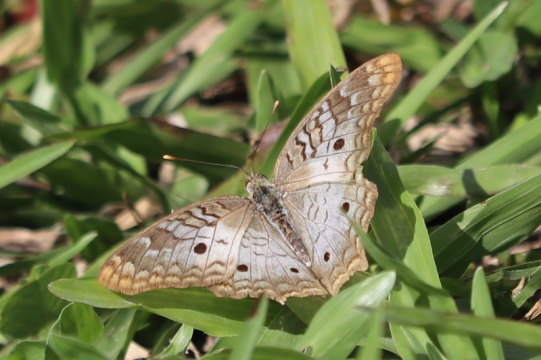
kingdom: Animalia
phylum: Arthropoda
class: Insecta
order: Lepidoptera
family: Nymphalidae
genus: Anartia
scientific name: Anartia jatrophae
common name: White Peacock
